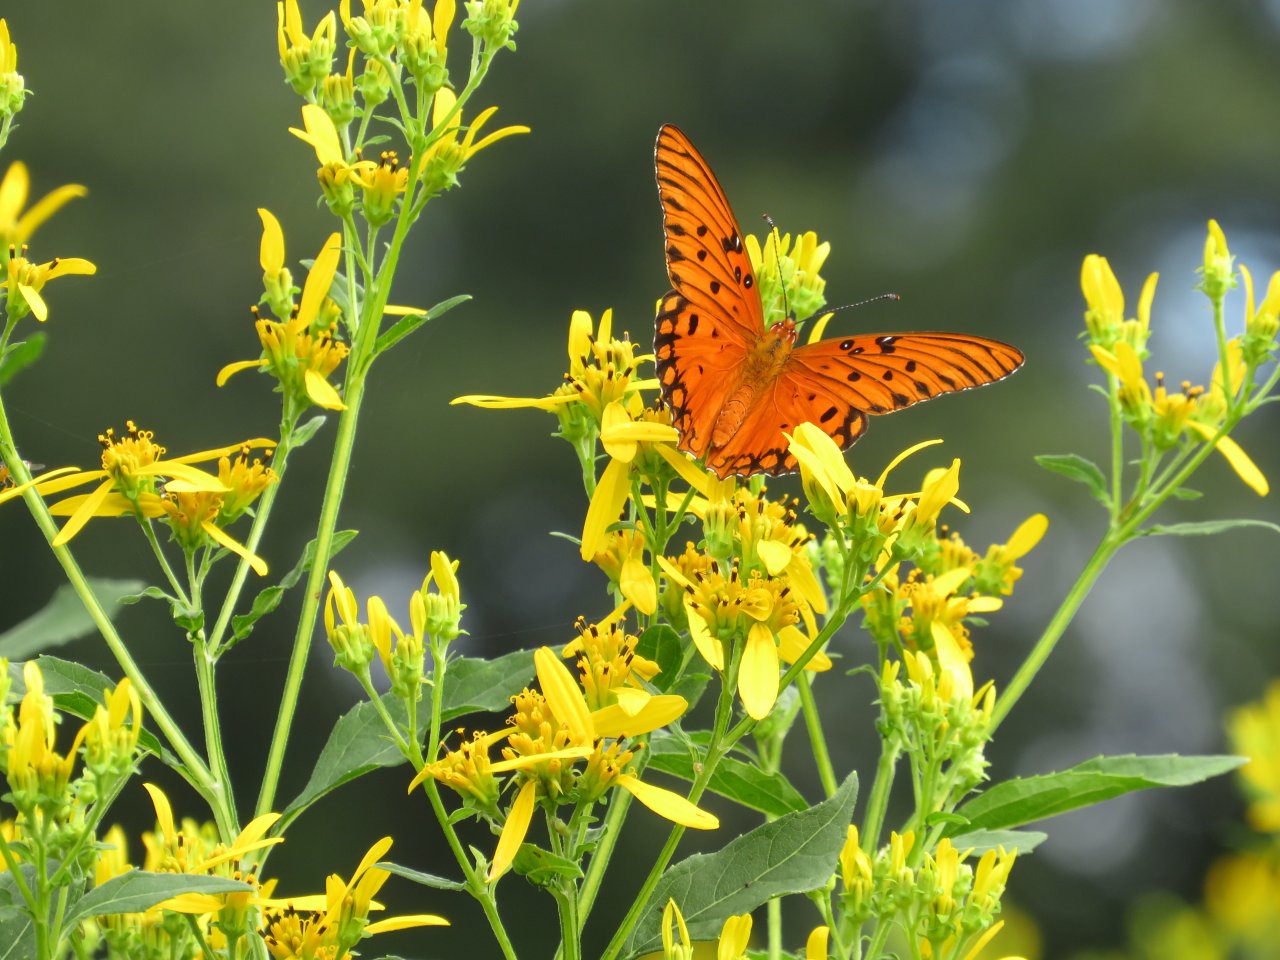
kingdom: Animalia
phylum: Arthropoda
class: Insecta
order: Lepidoptera
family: Nymphalidae
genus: Dione
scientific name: Dione vanillae
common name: Gulf Fritillary
